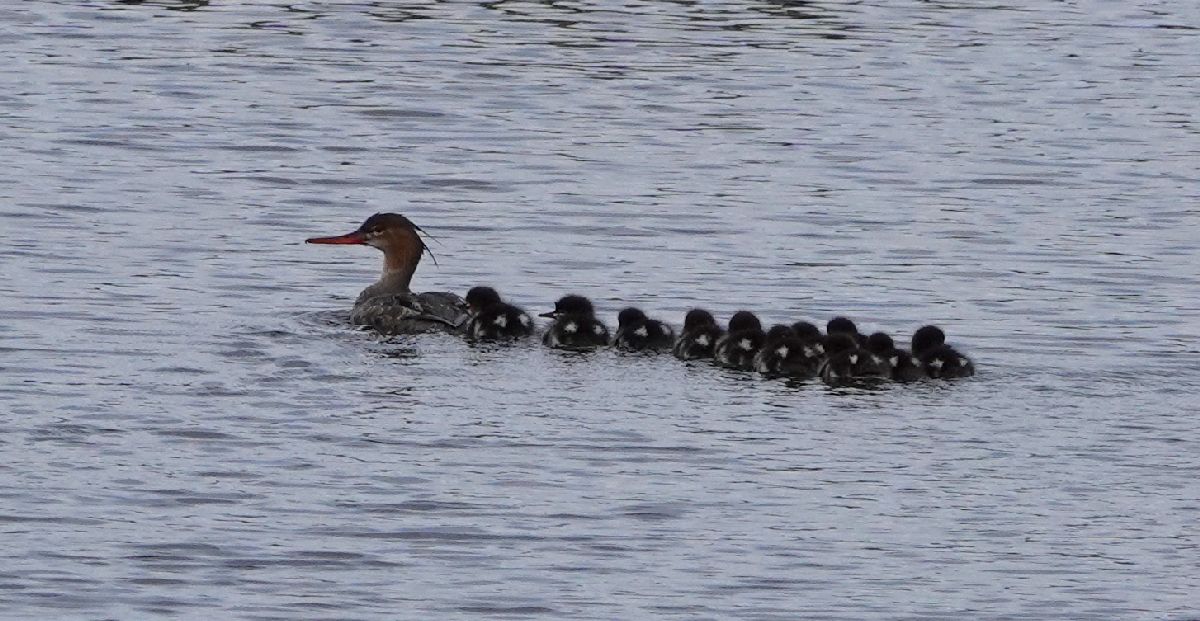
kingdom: Animalia
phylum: Chordata
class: Aves
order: Anseriformes
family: Anatidae
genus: Mergus
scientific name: Mergus serrator
